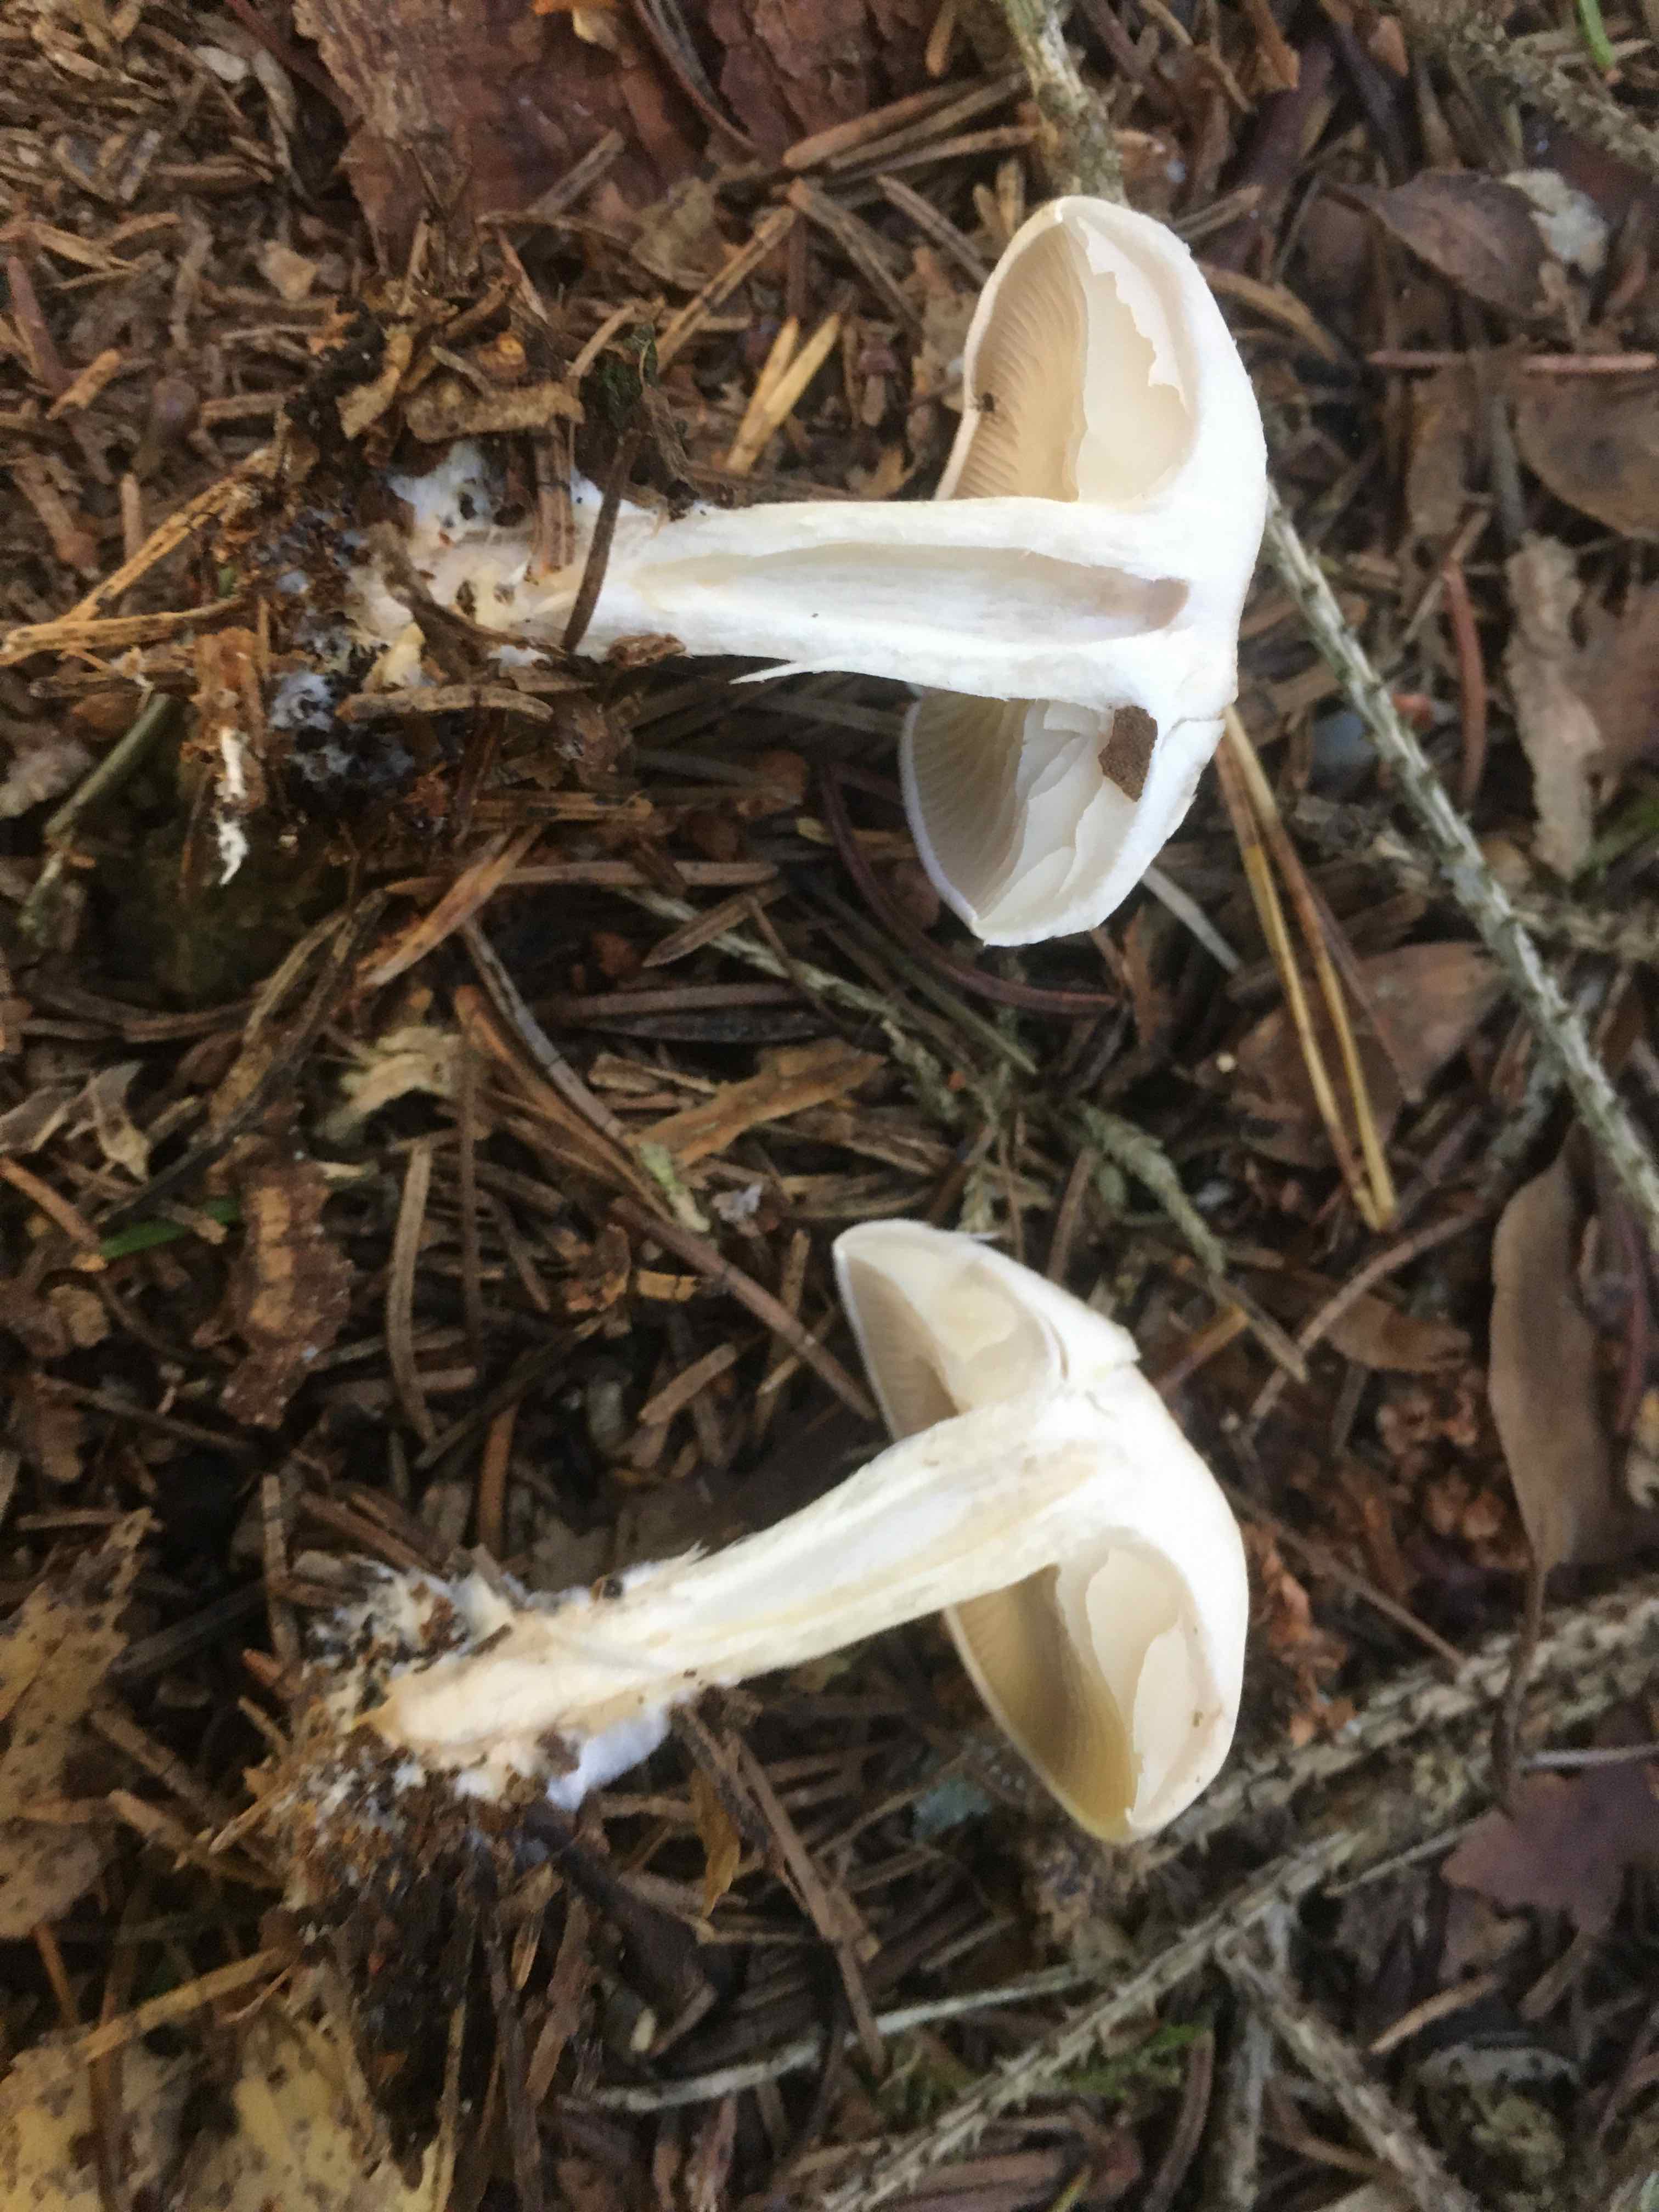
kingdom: Fungi
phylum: Basidiomycota
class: Agaricomycetes
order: Agaricales
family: Tricholomataceae
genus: Clitocybe
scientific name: Clitocybe
